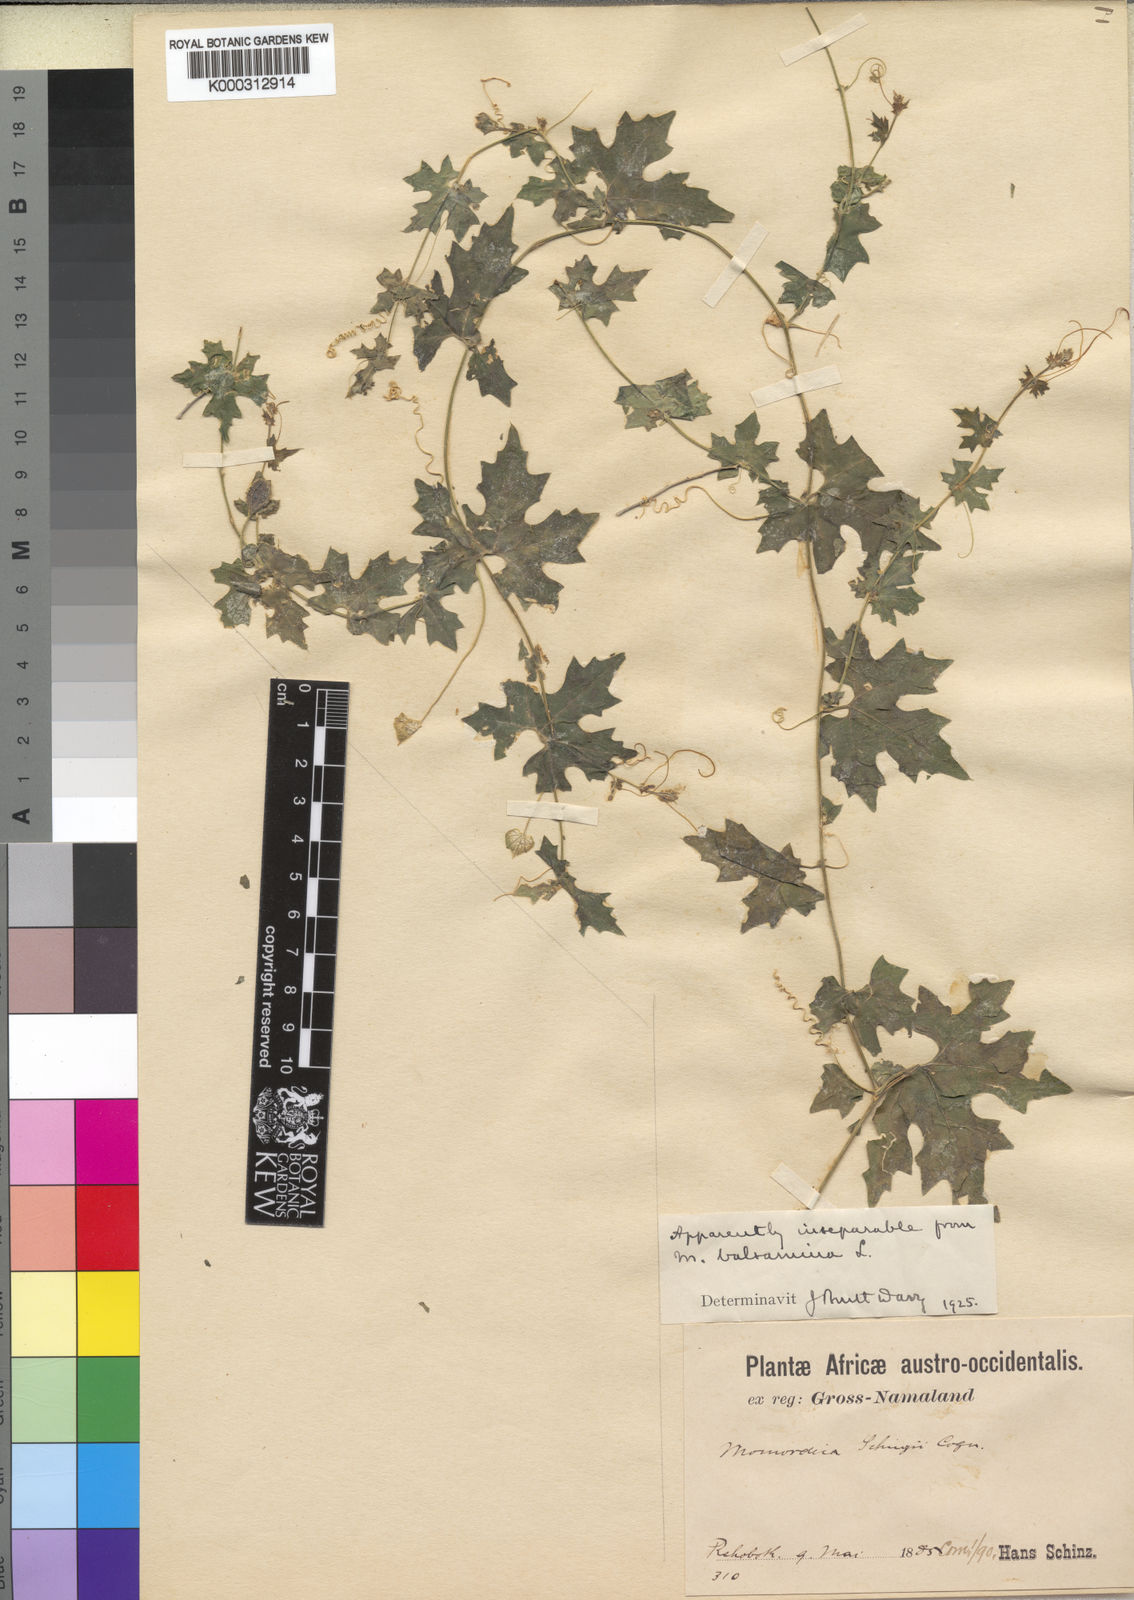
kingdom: Plantae
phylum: Tracheophyta
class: Magnoliopsida
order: Cucurbitales
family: Cucurbitaceae
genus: Momordica
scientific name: Momordica
